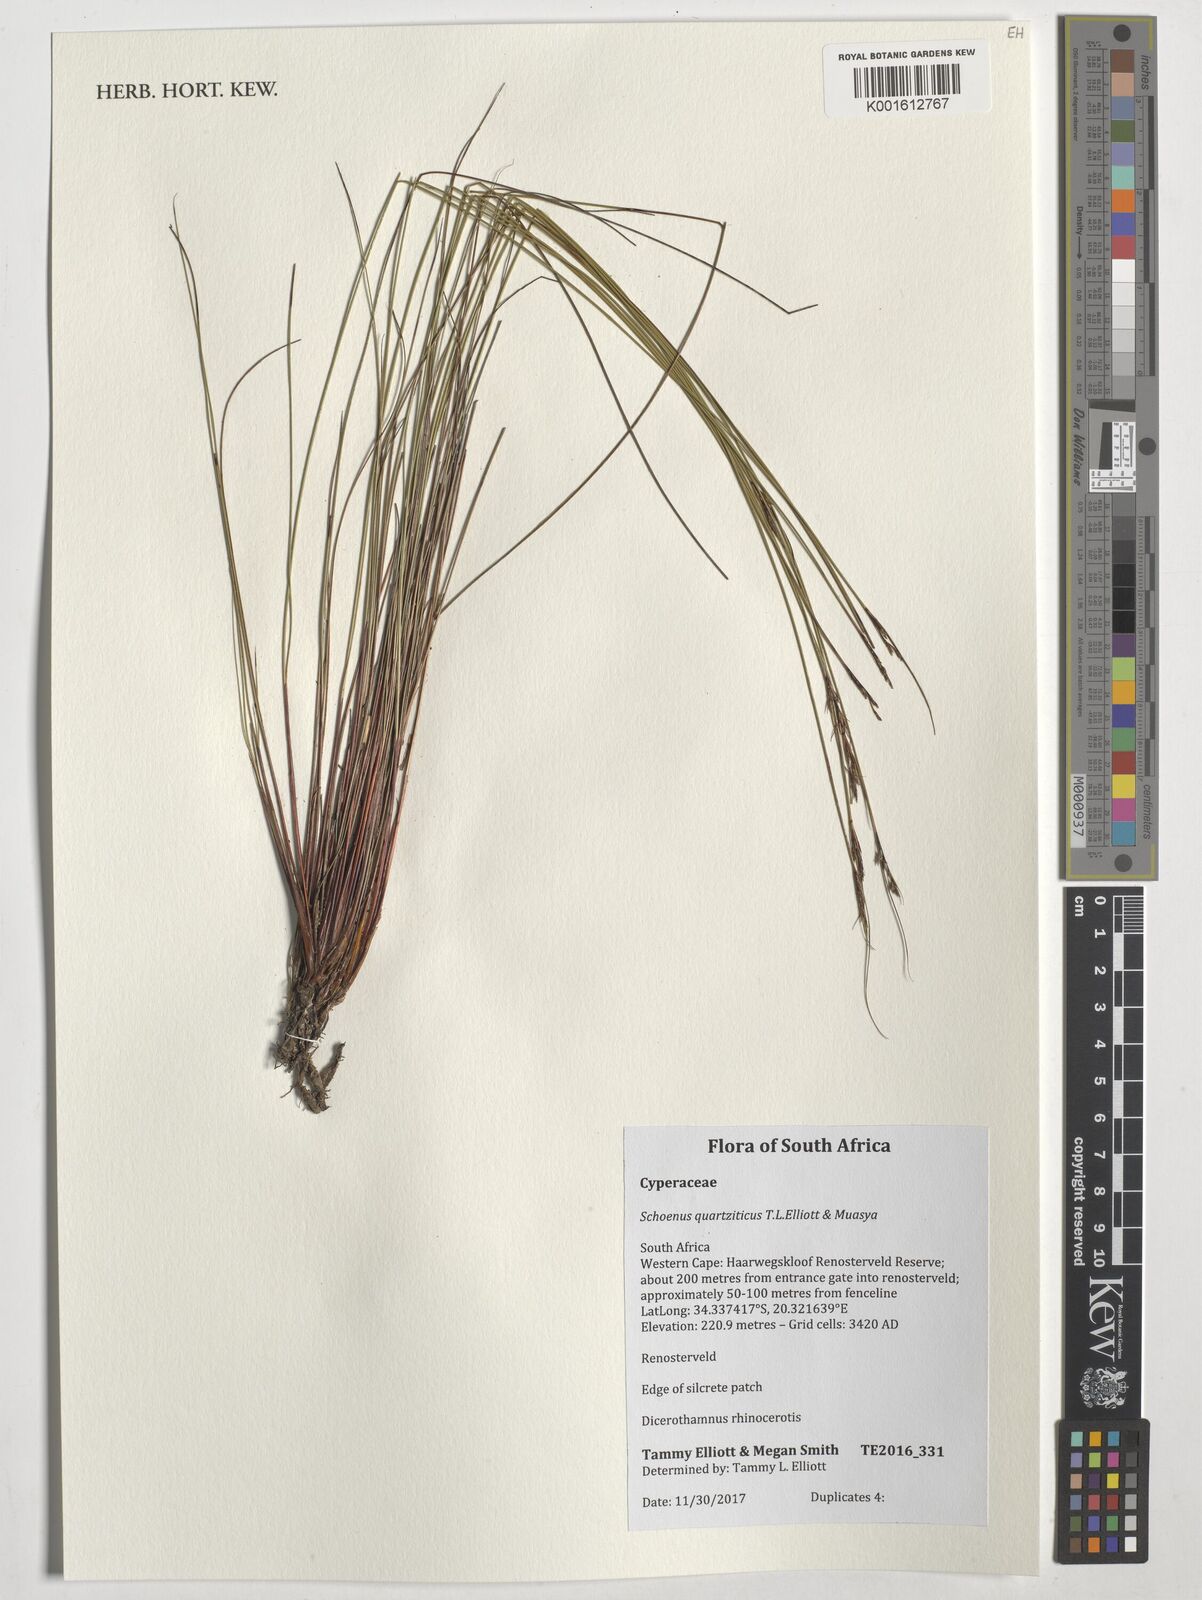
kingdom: Plantae
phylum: Tracheophyta
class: Liliopsida
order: Poales
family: Cyperaceae
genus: Schoenus
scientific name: Schoenus quartziticus
